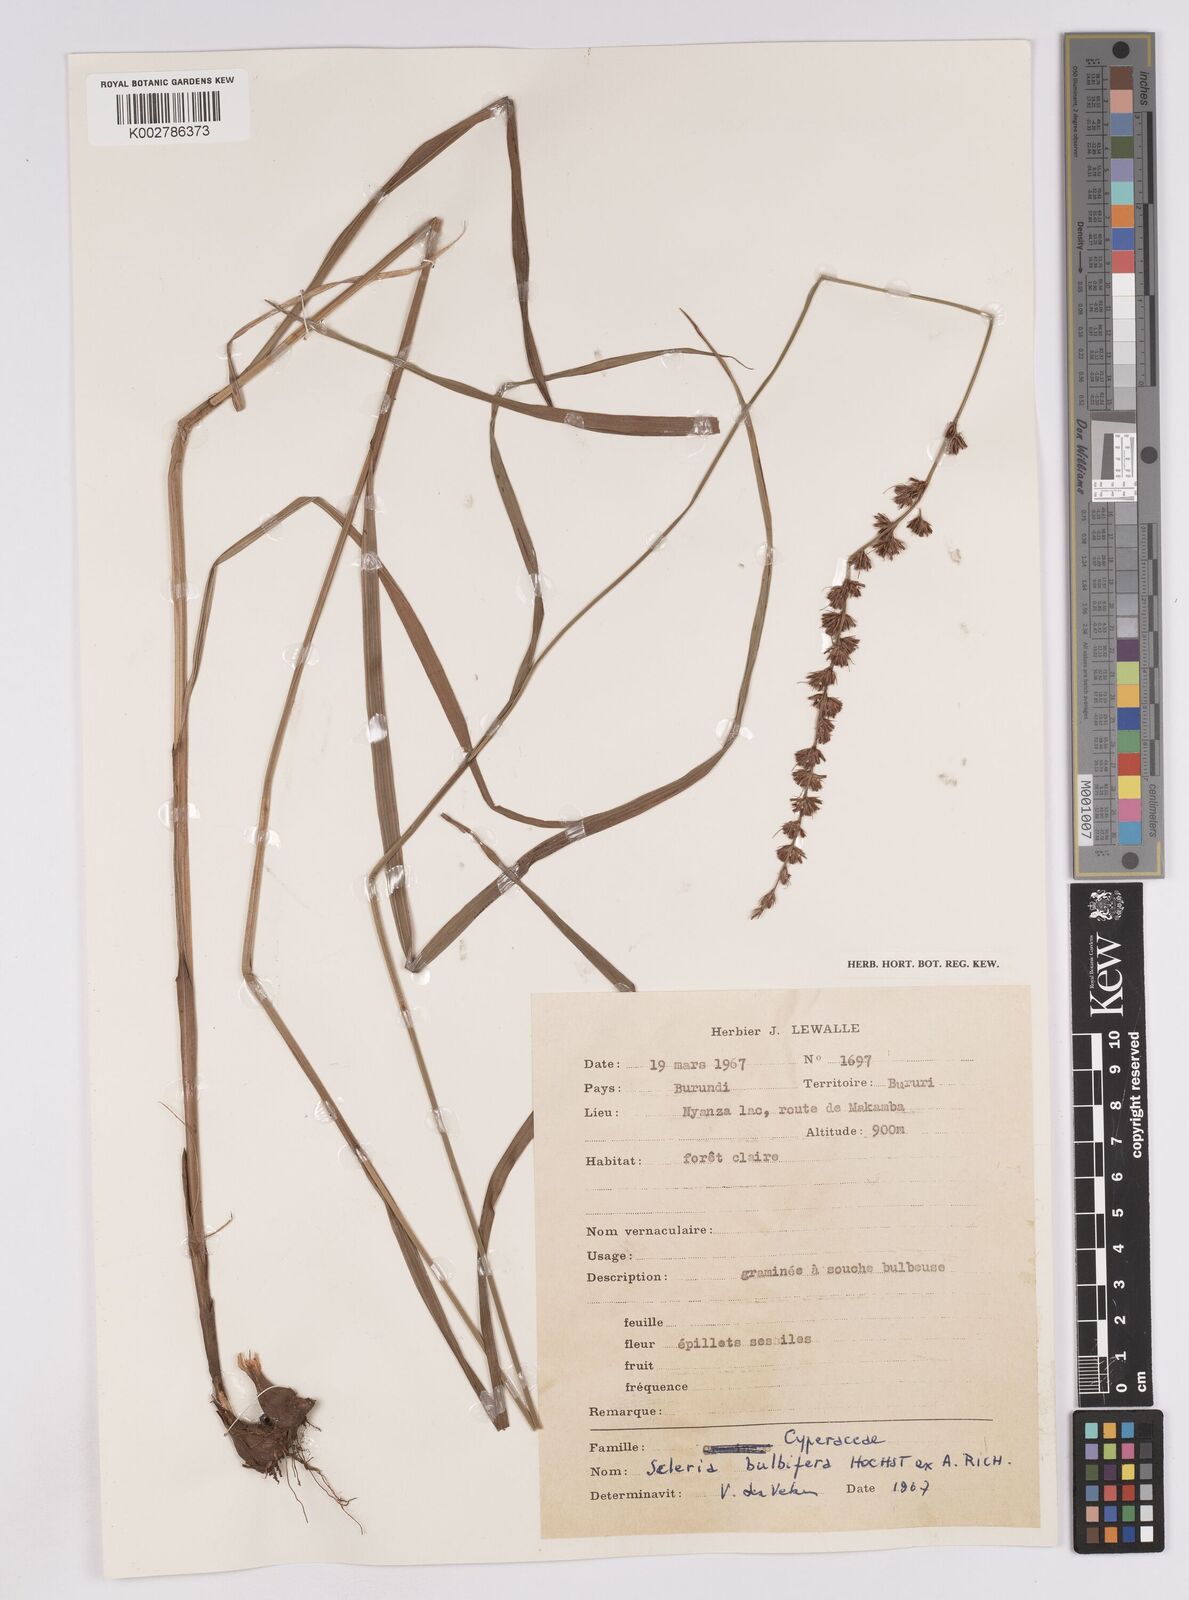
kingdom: Plantae
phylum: Tracheophyta
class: Liliopsida
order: Poales
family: Cyperaceae
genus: Scleria
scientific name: Scleria bulbifera
